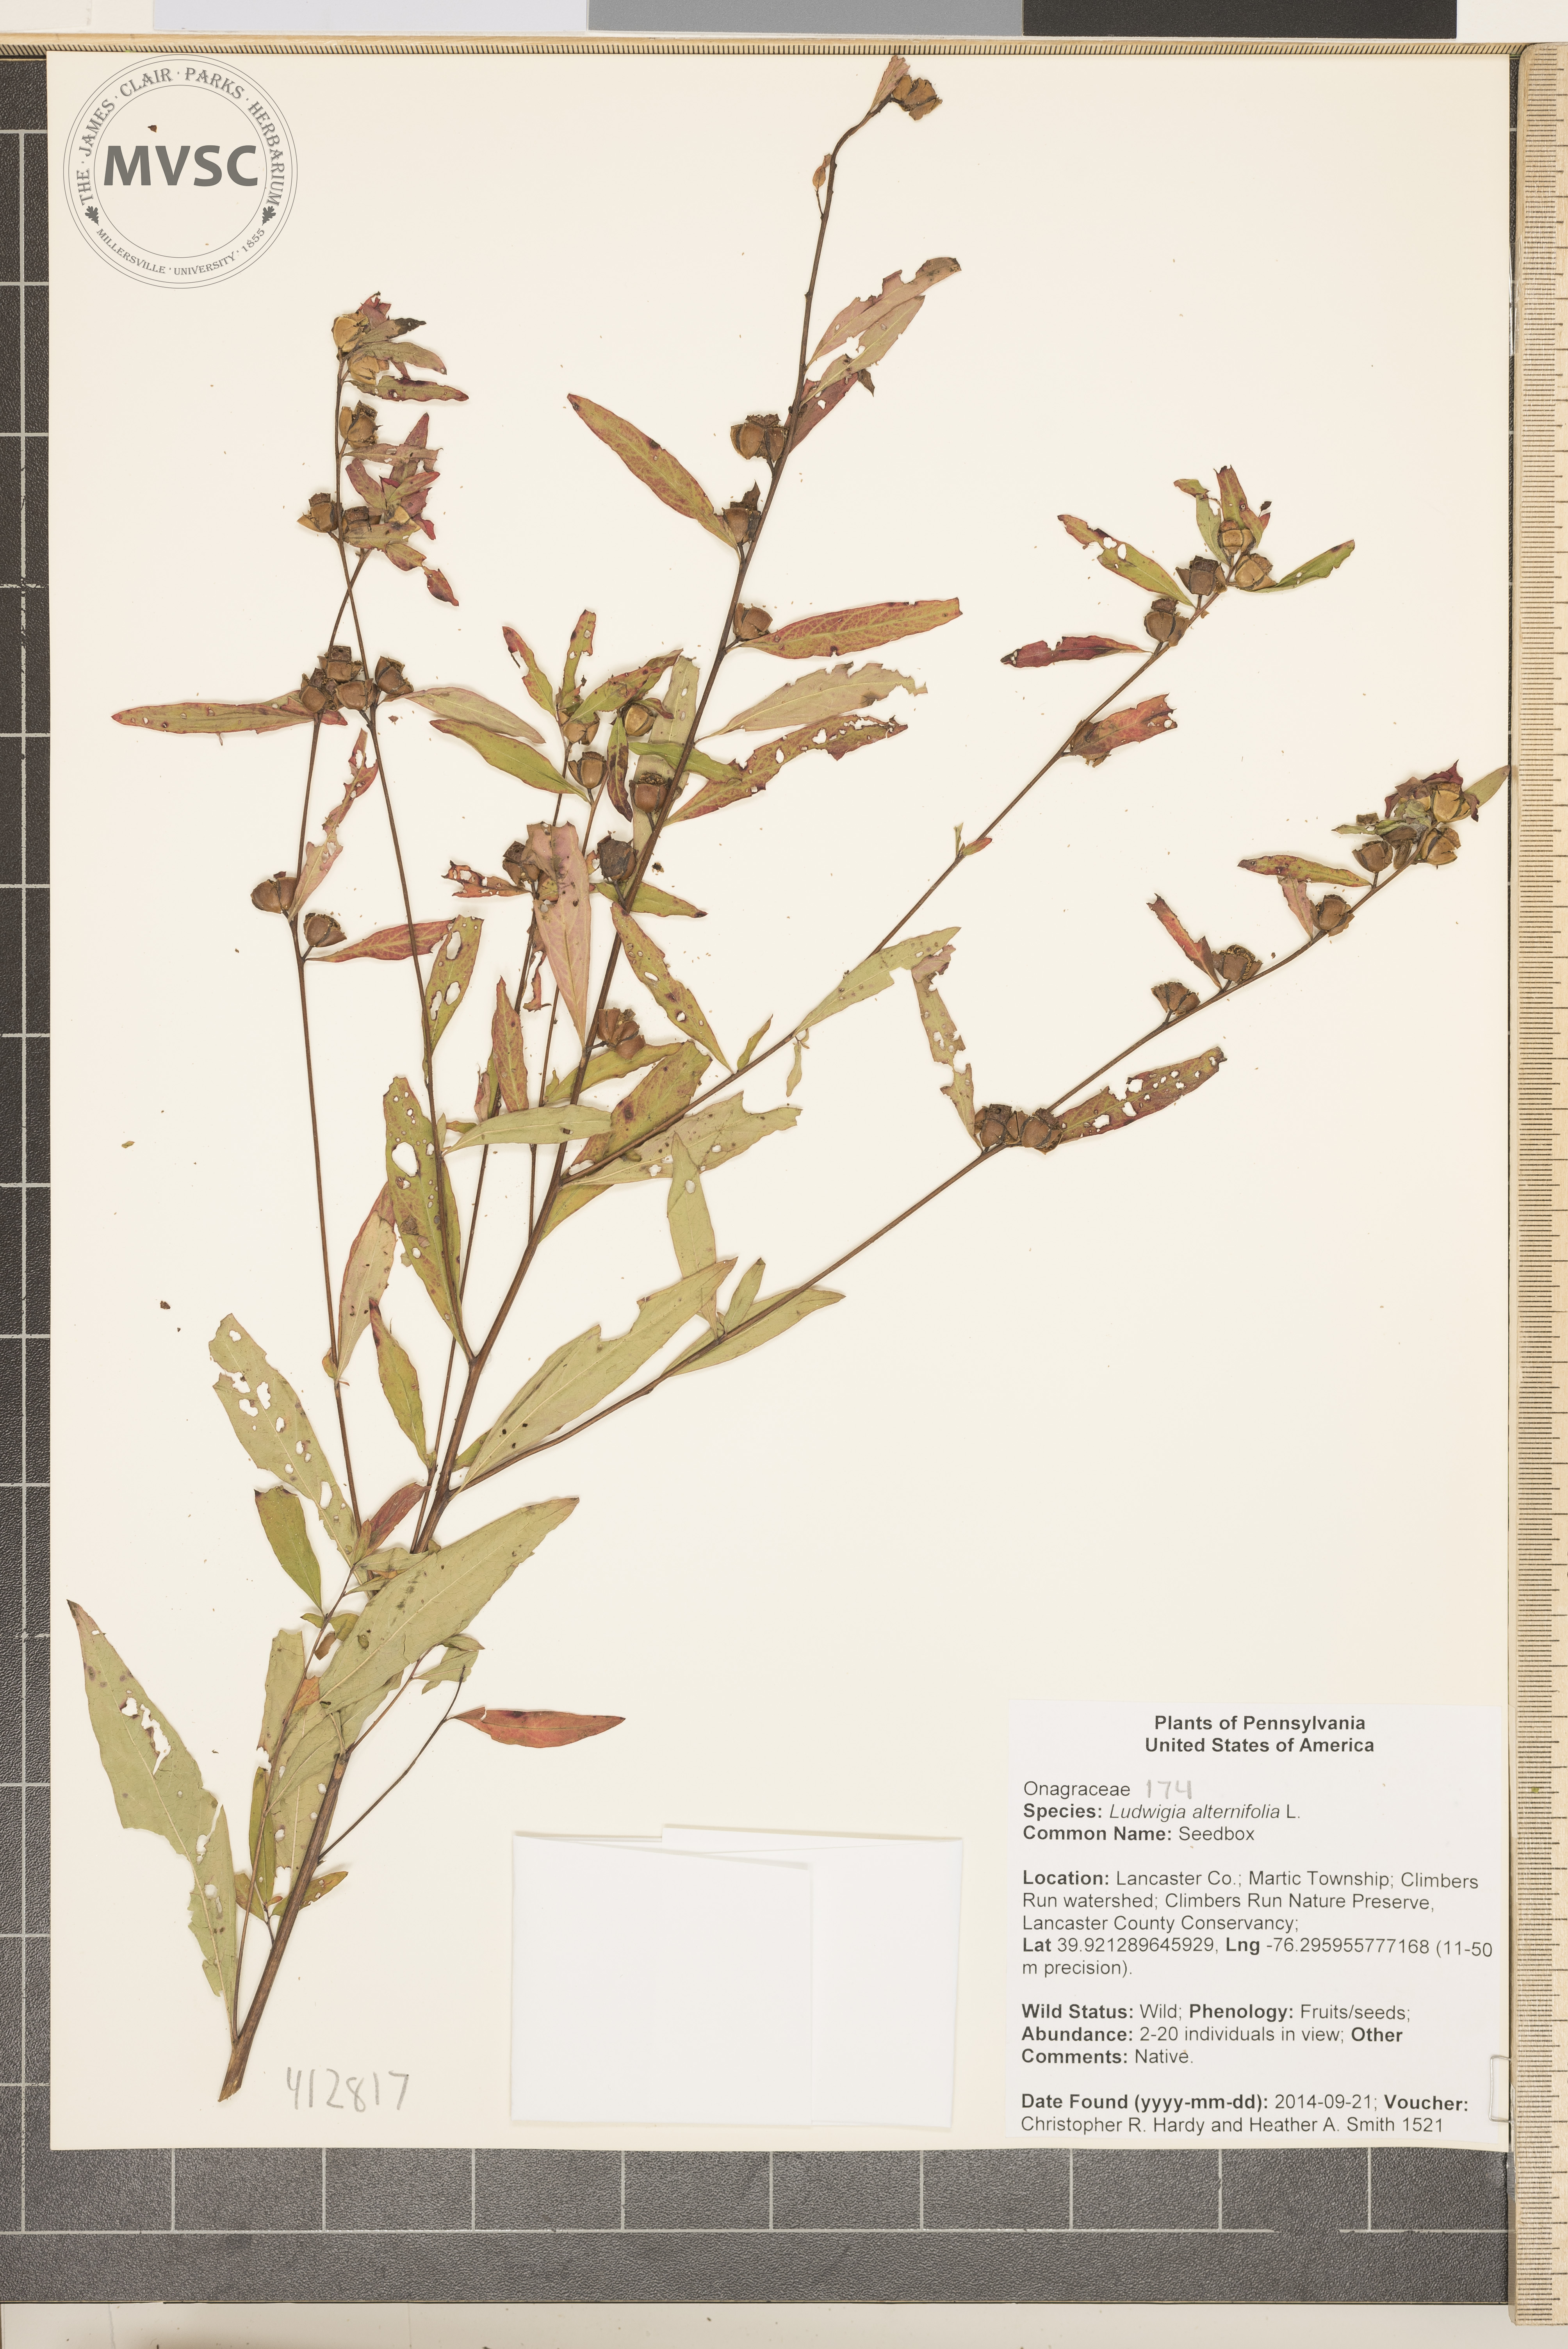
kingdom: Plantae
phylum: Tracheophyta
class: Magnoliopsida
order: Myrtales
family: Onagraceae
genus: Ludwigia
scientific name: Ludwigia alternifolia
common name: seedbox
